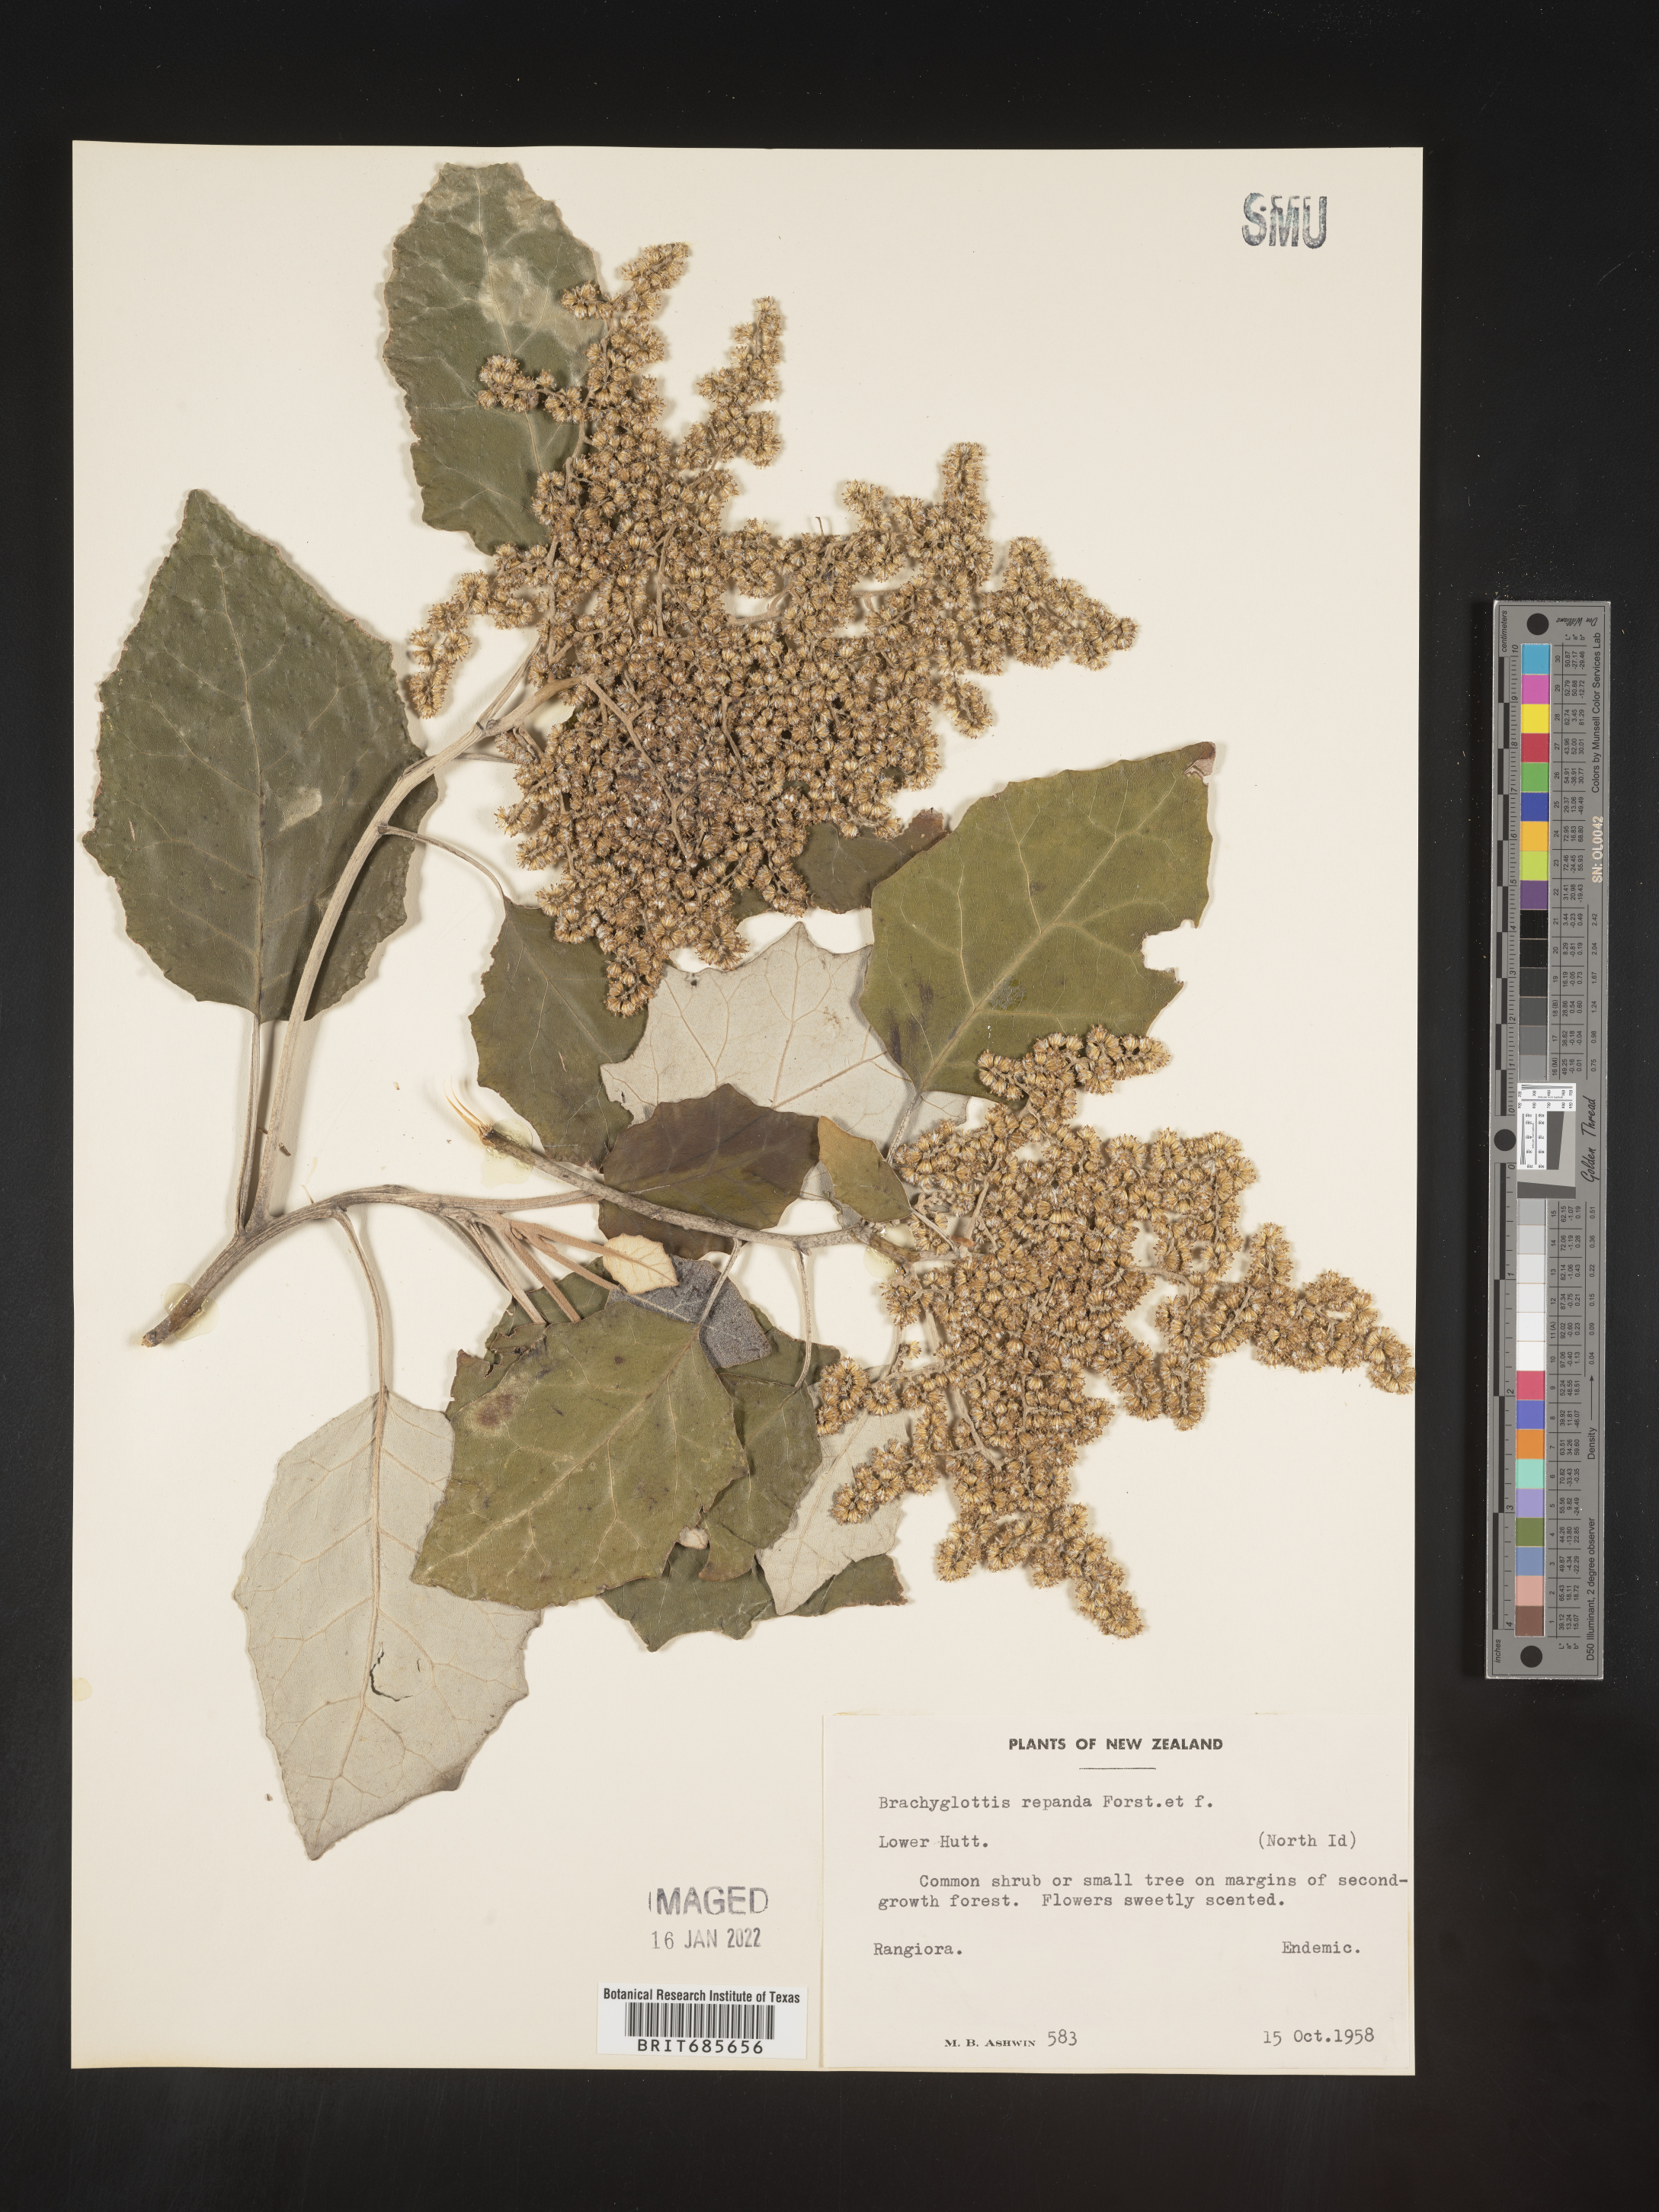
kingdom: Plantae
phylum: Tracheophyta
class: Magnoliopsida
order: Asterales
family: Asteraceae
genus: Brachyglottis
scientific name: Brachyglottis repanda
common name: Hedge ragwort
